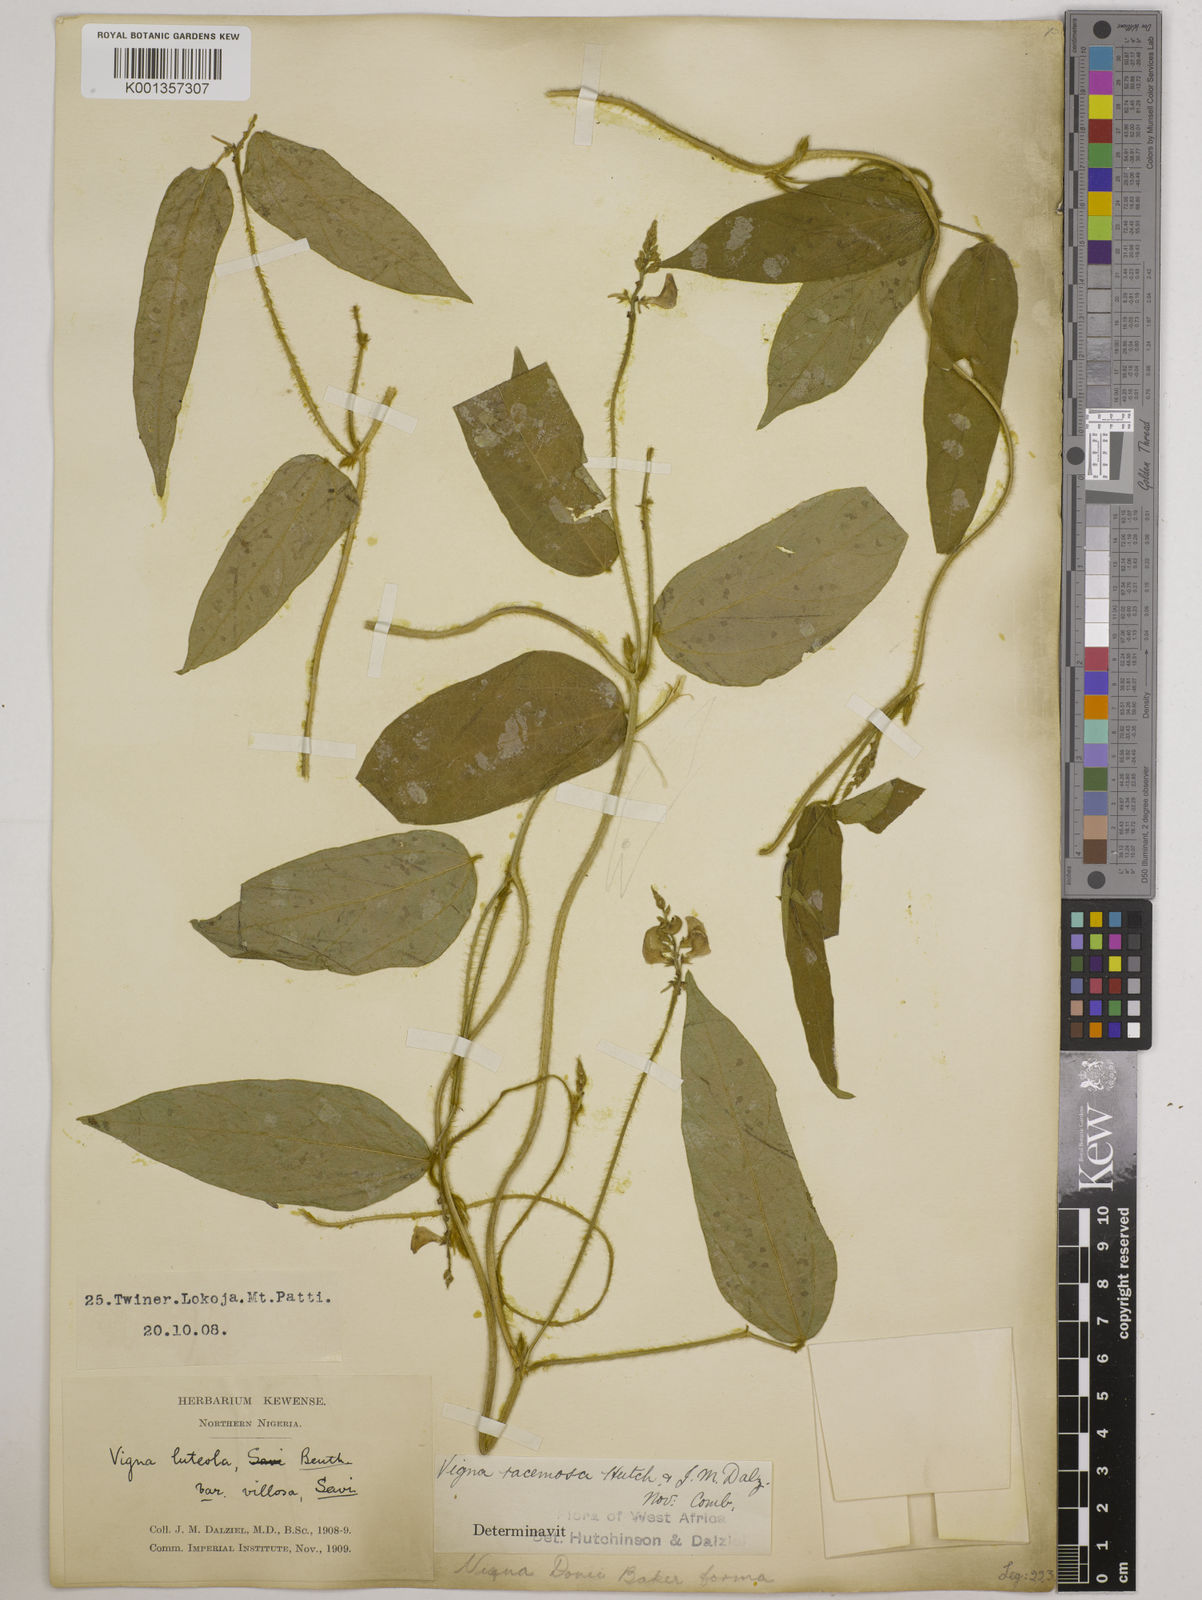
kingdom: Plantae
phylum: Tracheophyta
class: Magnoliopsida
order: Fabales
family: Fabaceae
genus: Vigna
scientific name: Vigna racemosa
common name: Beans not eaten
